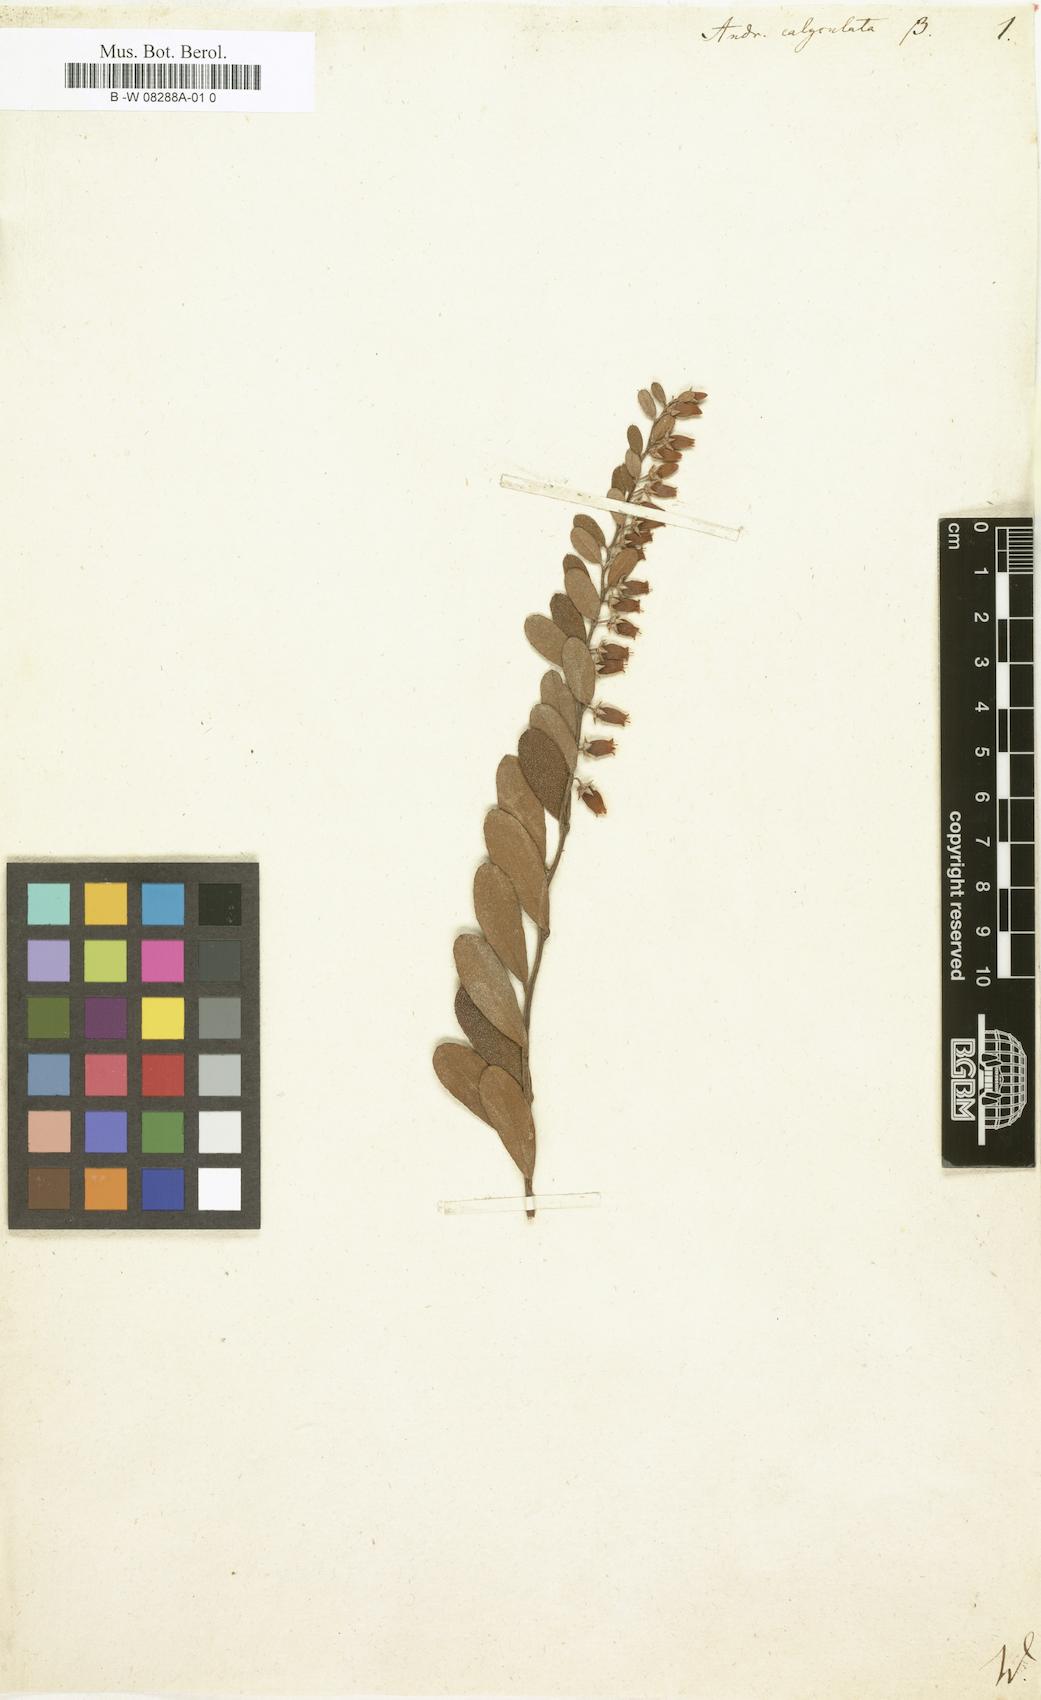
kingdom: Plantae
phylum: Tracheophyta
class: Magnoliopsida
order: Ericales
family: Ericaceae
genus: Chamaedaphne
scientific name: Chamaedaphne calyculata
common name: Leatherleaf
